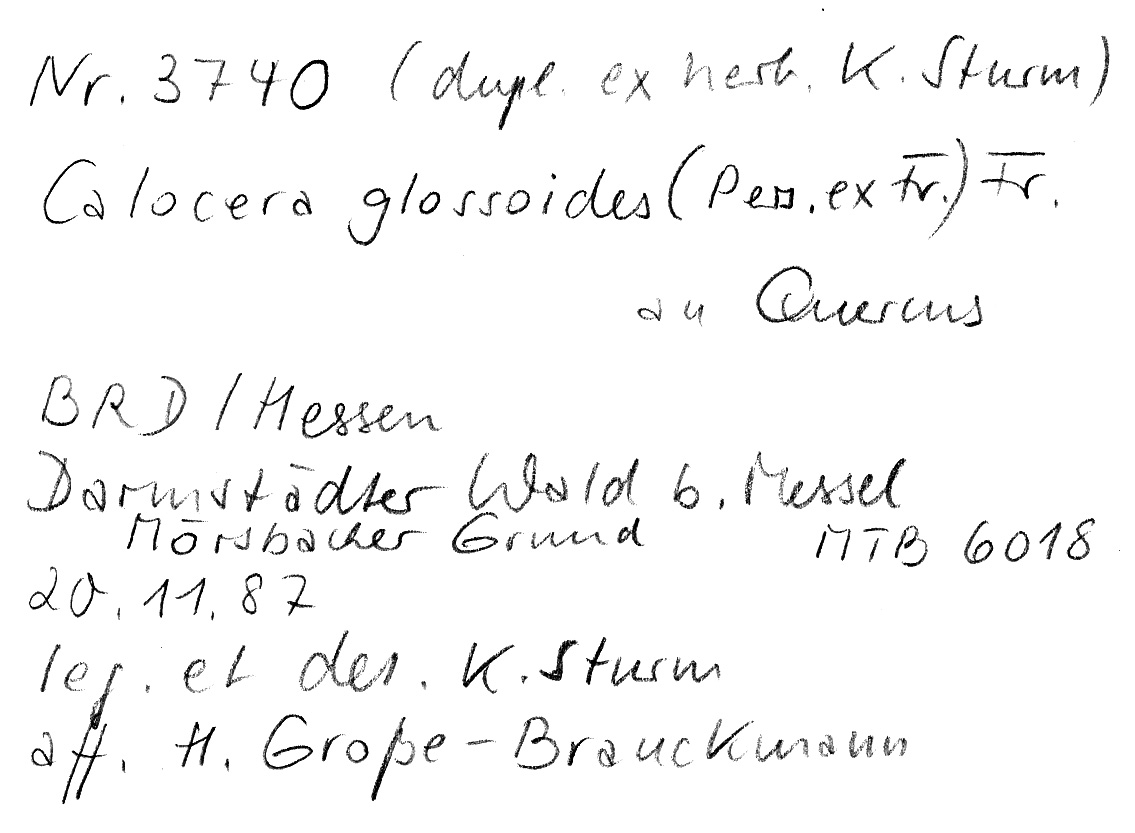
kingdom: Fungi
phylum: Basidiomycota
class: Dacrymycetes
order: Dacrymycetales
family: Dacrymycetaceae
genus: Calocera
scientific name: Calocera glossoides
